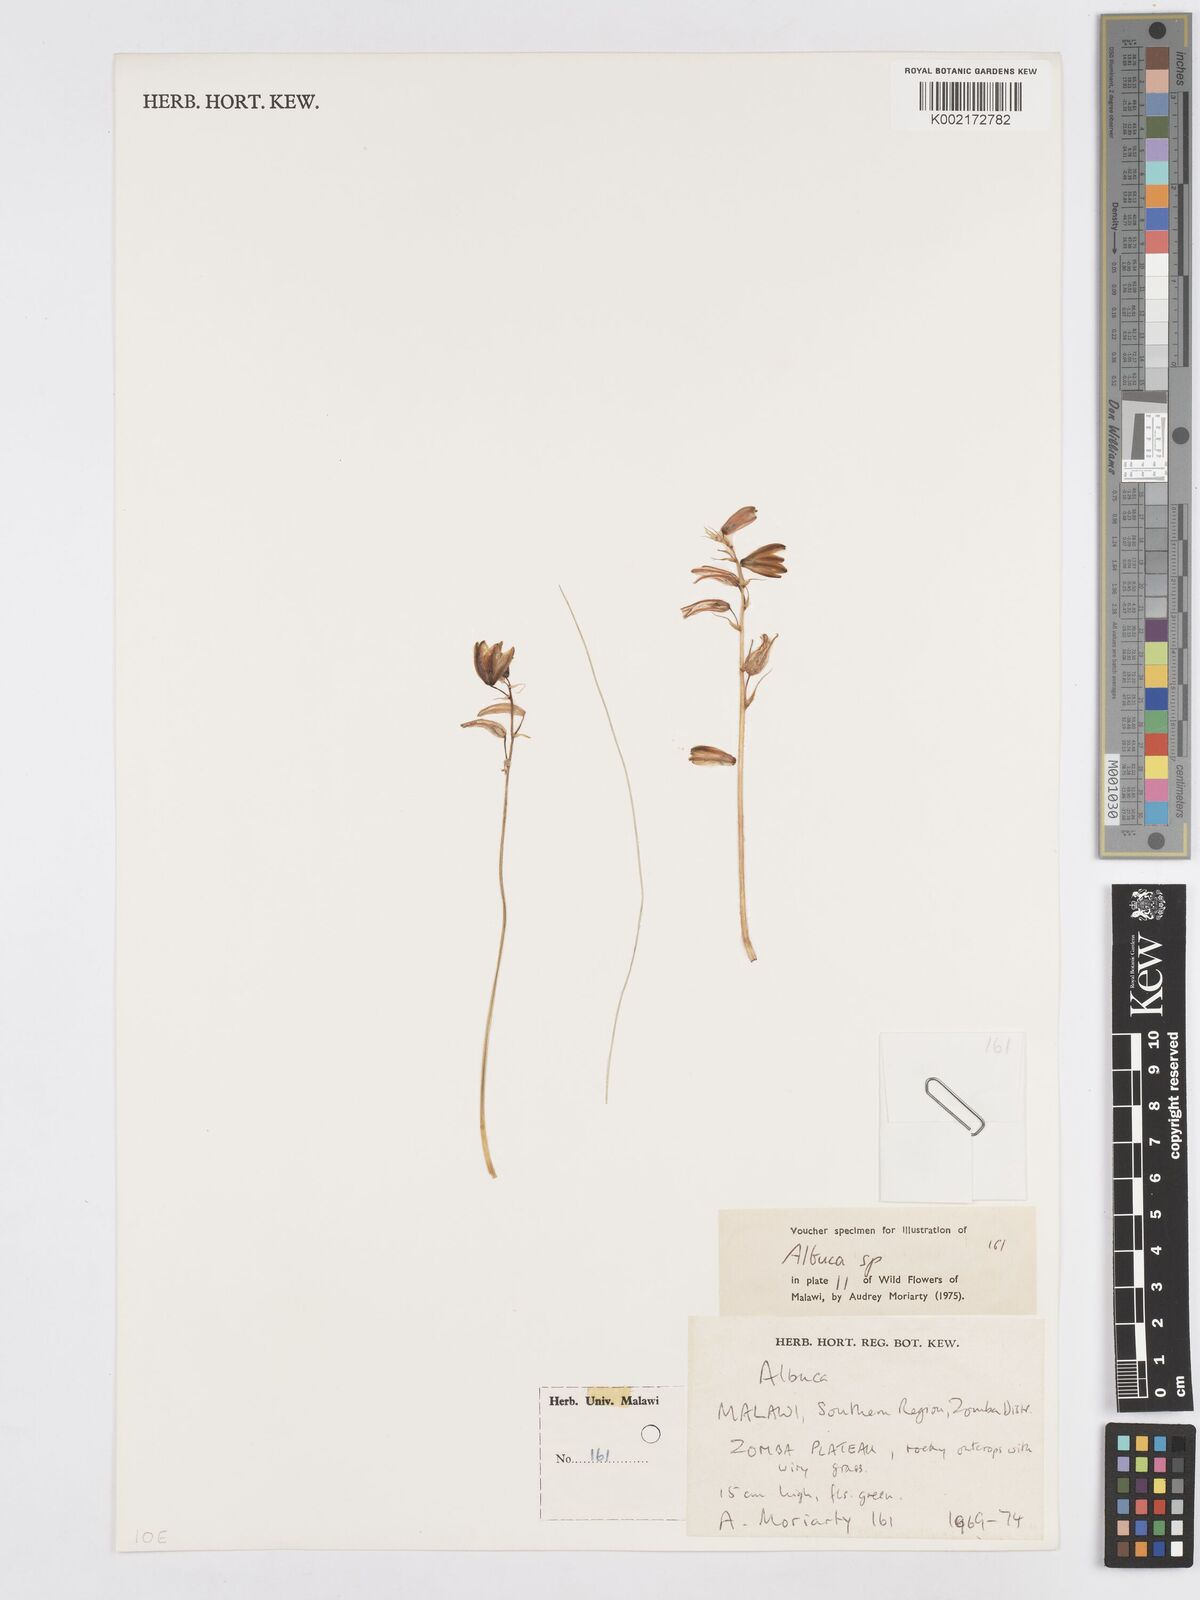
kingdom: Plantae
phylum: Tracheophyta
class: Liliopsida
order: Asparagales
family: Asparagaceae
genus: Albuca
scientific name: Albuca
